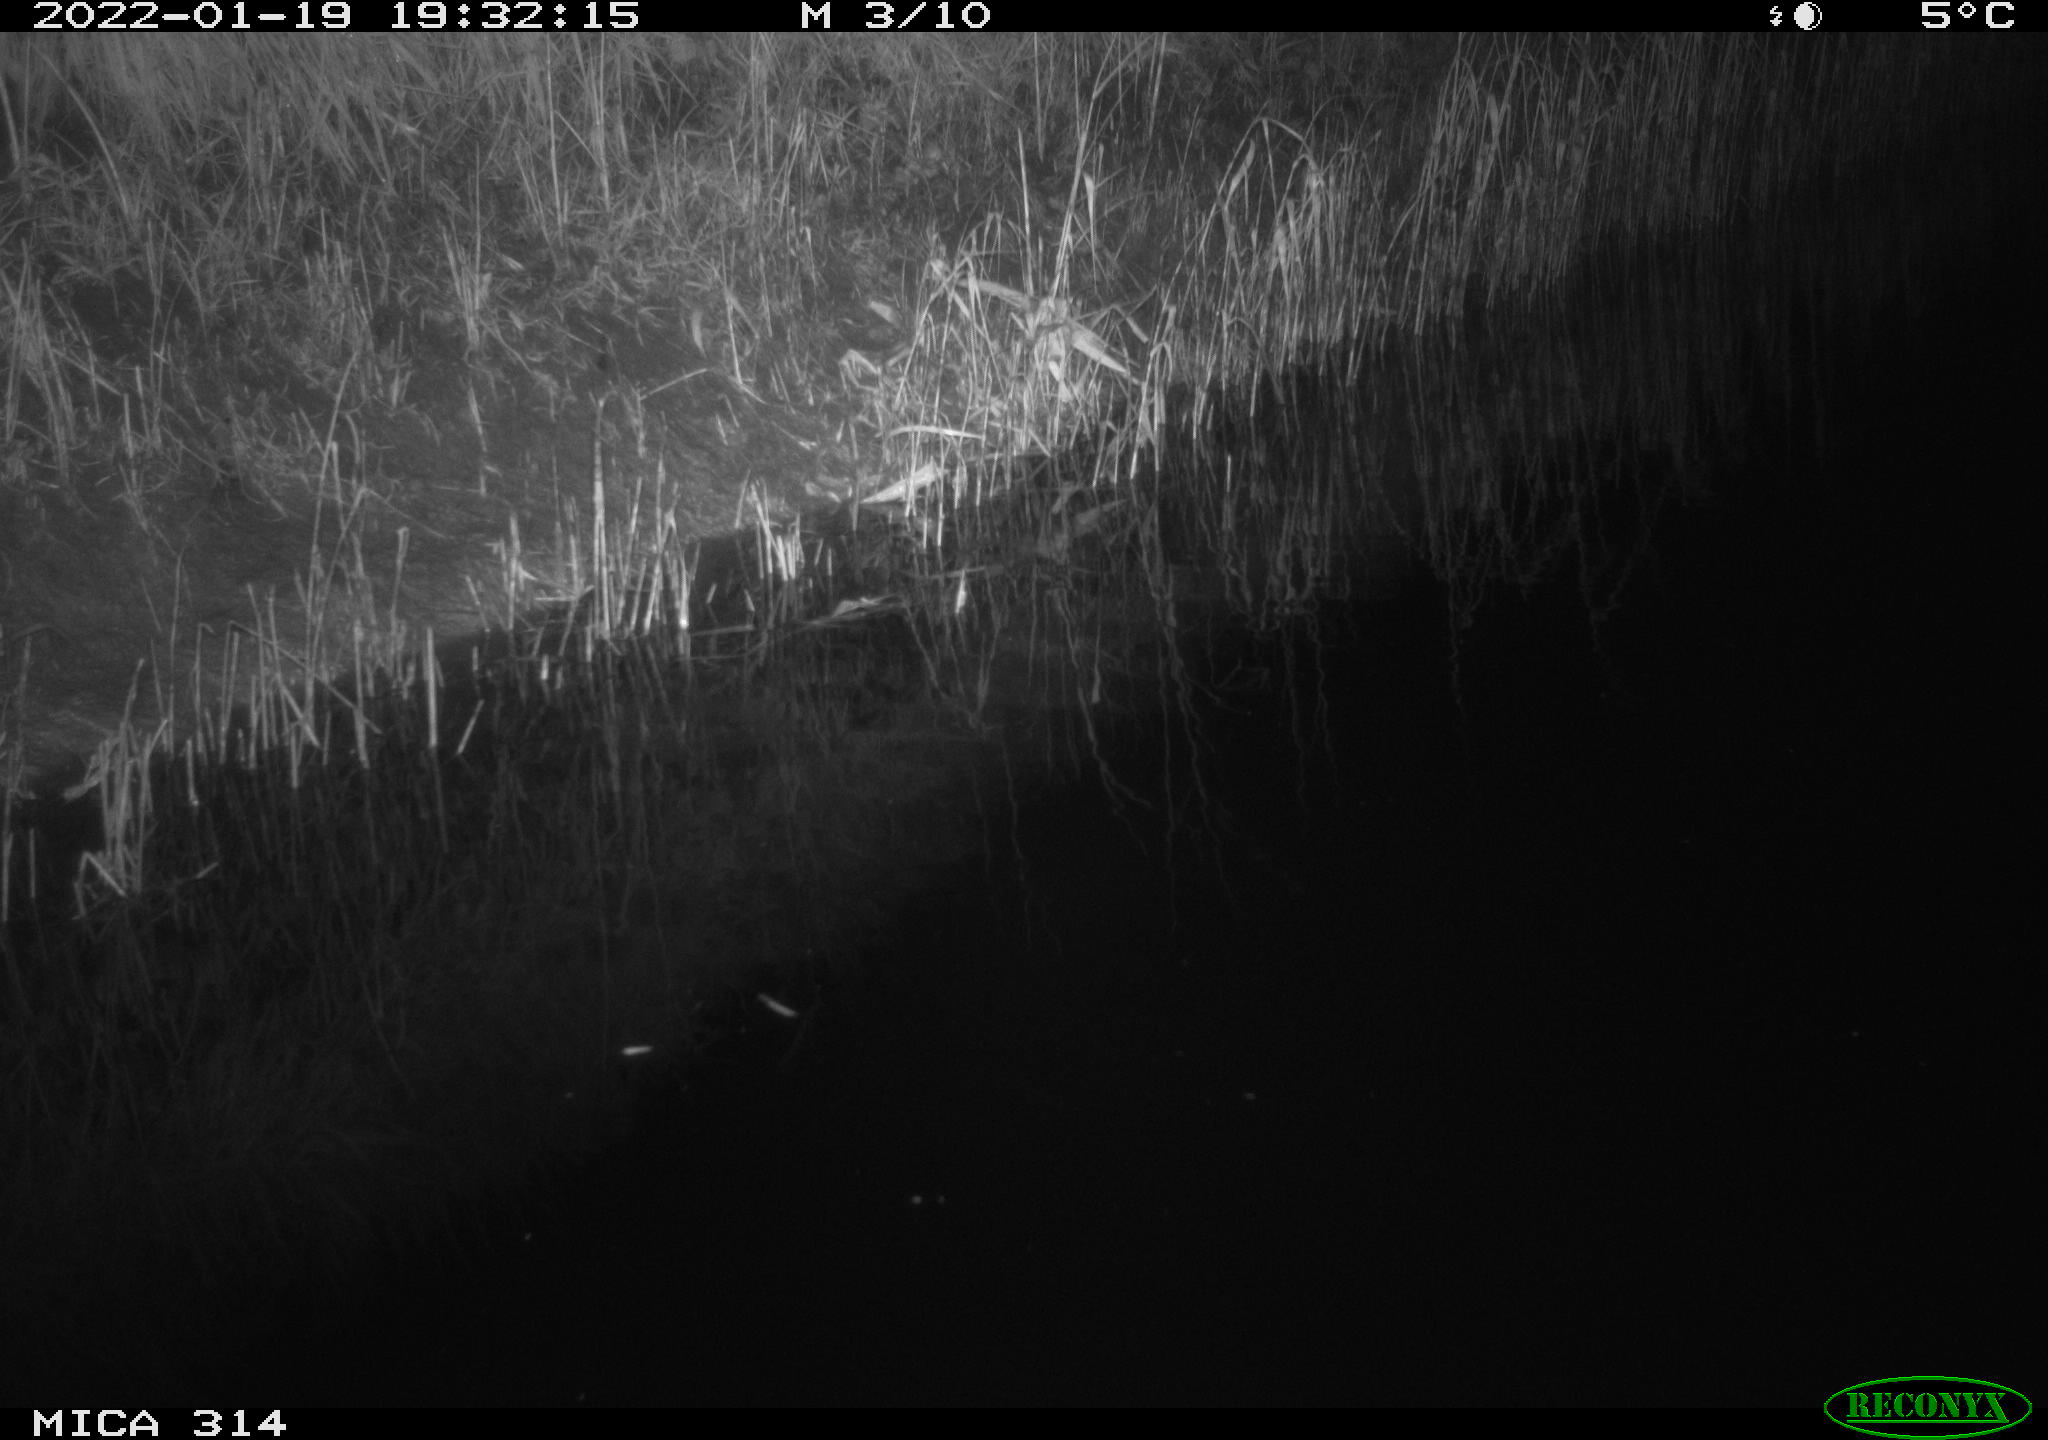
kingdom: Animalia
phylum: Chordata
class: Mammalia
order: Rodentia
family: Muridae
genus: Rattus
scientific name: Rattus norvegicus
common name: Brown rat
